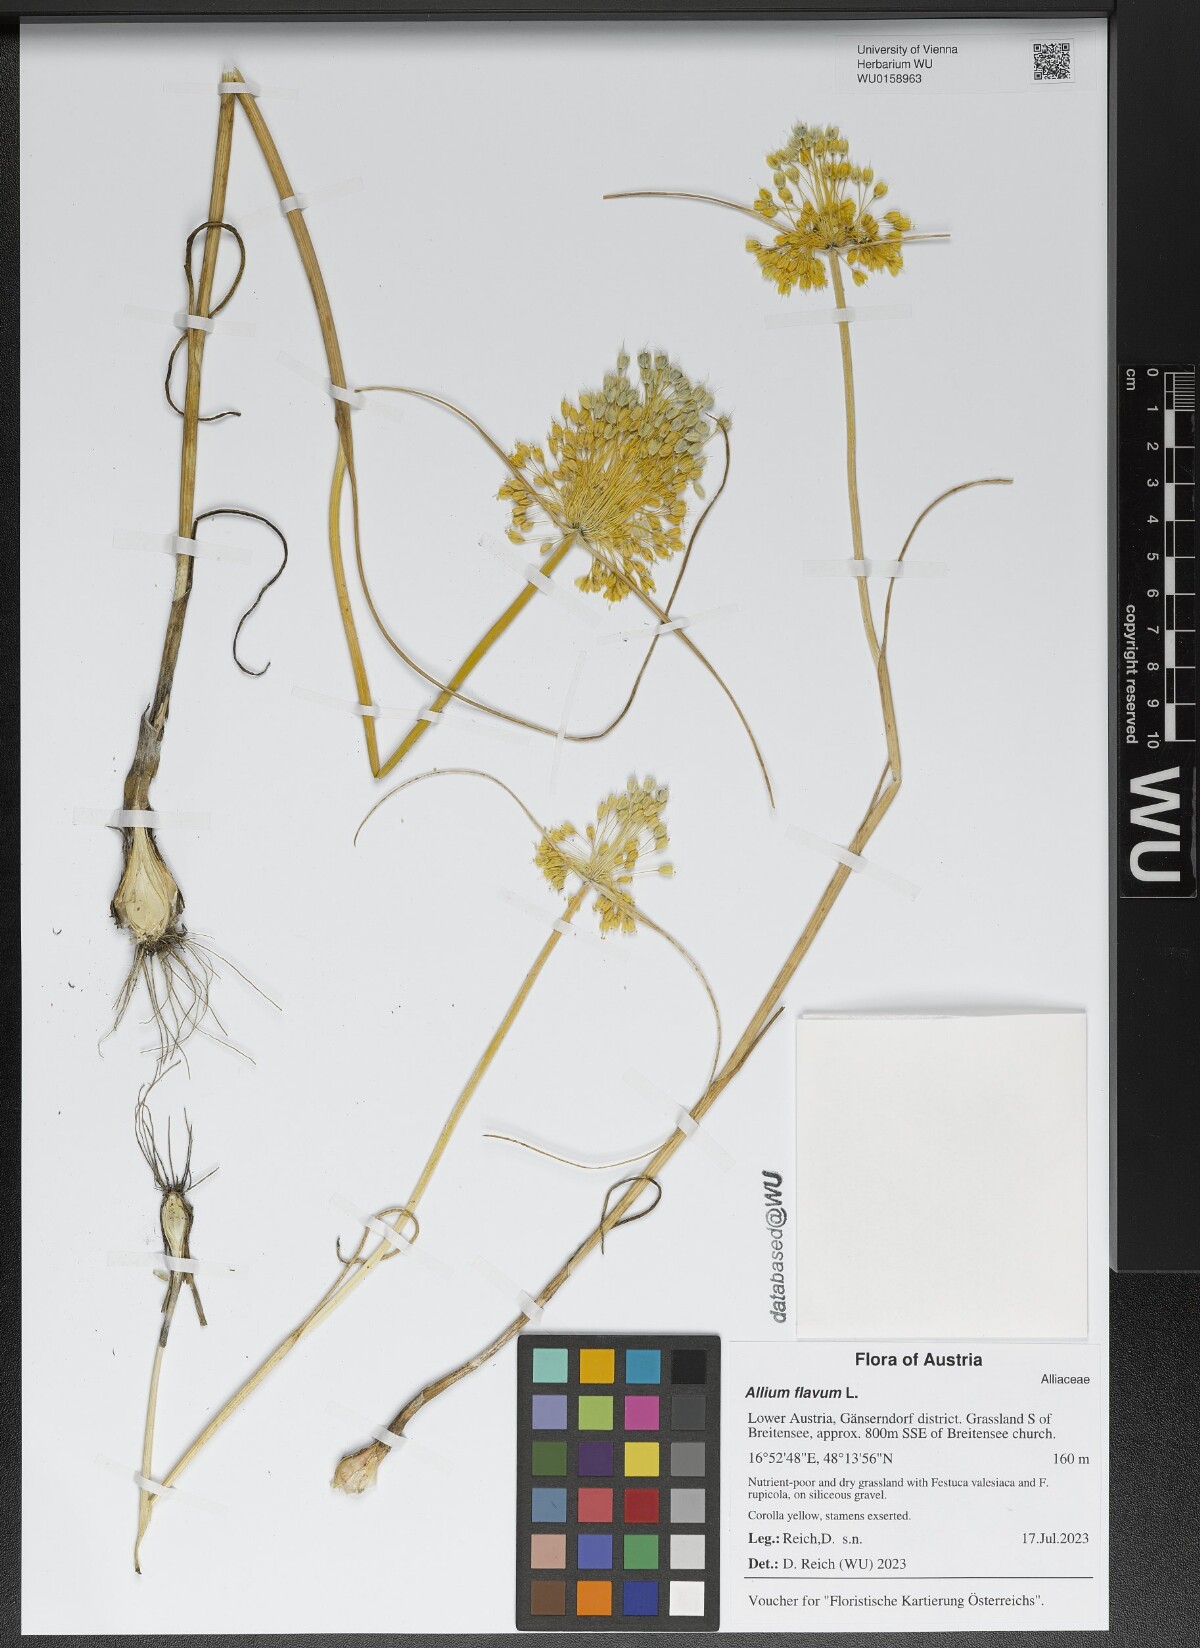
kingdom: Plantae
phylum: Tracheophyta
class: Liliopsida
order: Asparagales
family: Amaryllidaceae
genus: Allium
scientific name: Allium flavum
